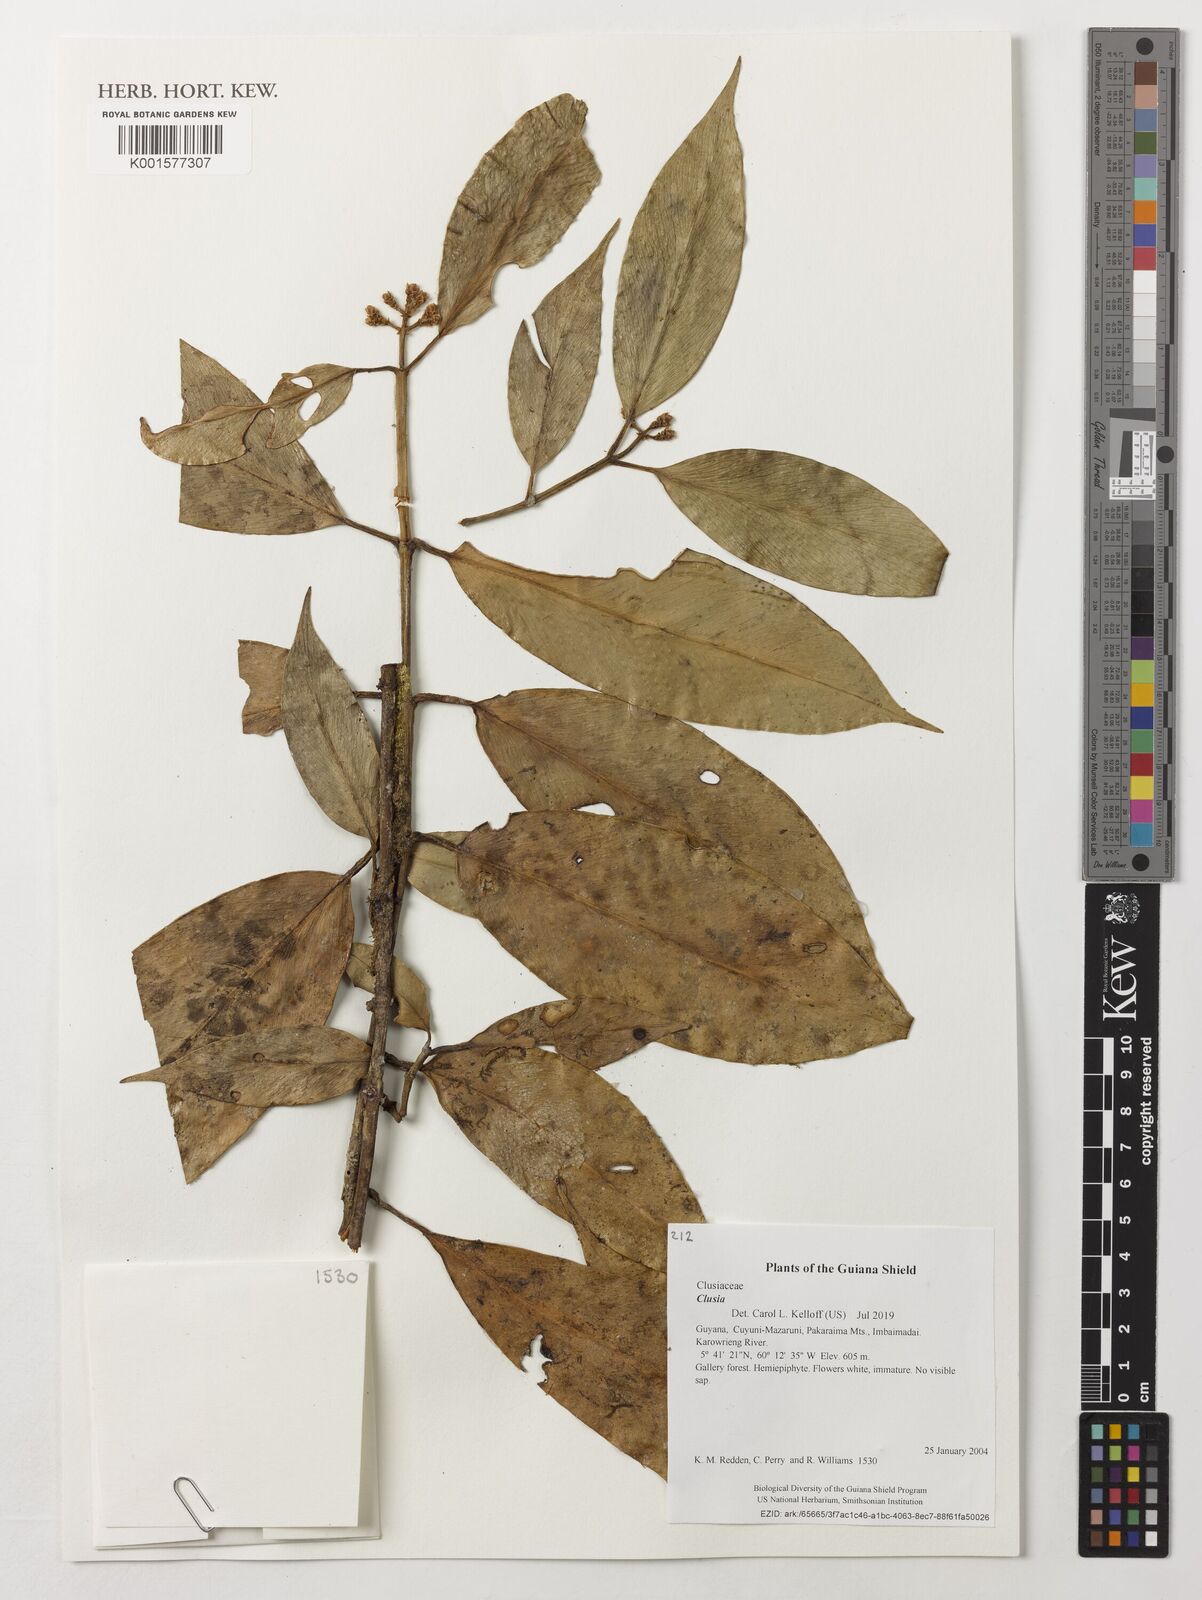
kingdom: Plantae
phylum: Tracheophyta
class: Magnoliopsida
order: Malpighiales
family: Clusiaceae
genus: Clusia
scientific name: Clusia
